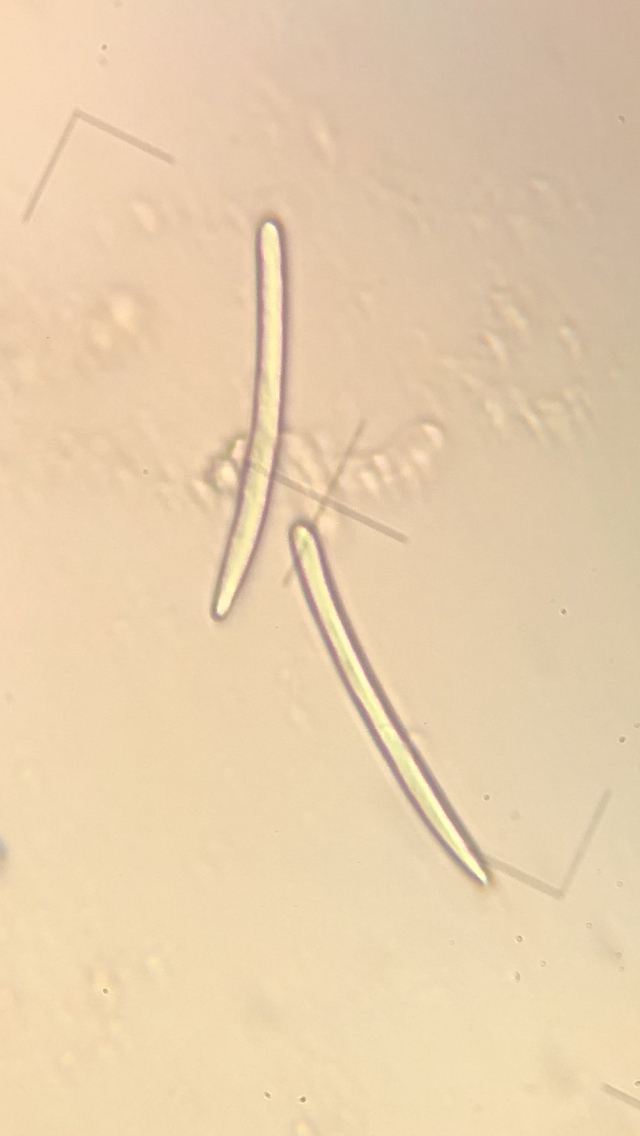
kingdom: Fungi
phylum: Ascomycota
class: Geoglossomycetes
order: Geoglossales
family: Geoglossaceae
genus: Hemileucoglossum
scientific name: Hemileucoglossum elongatum
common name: småsporet jordtunge
